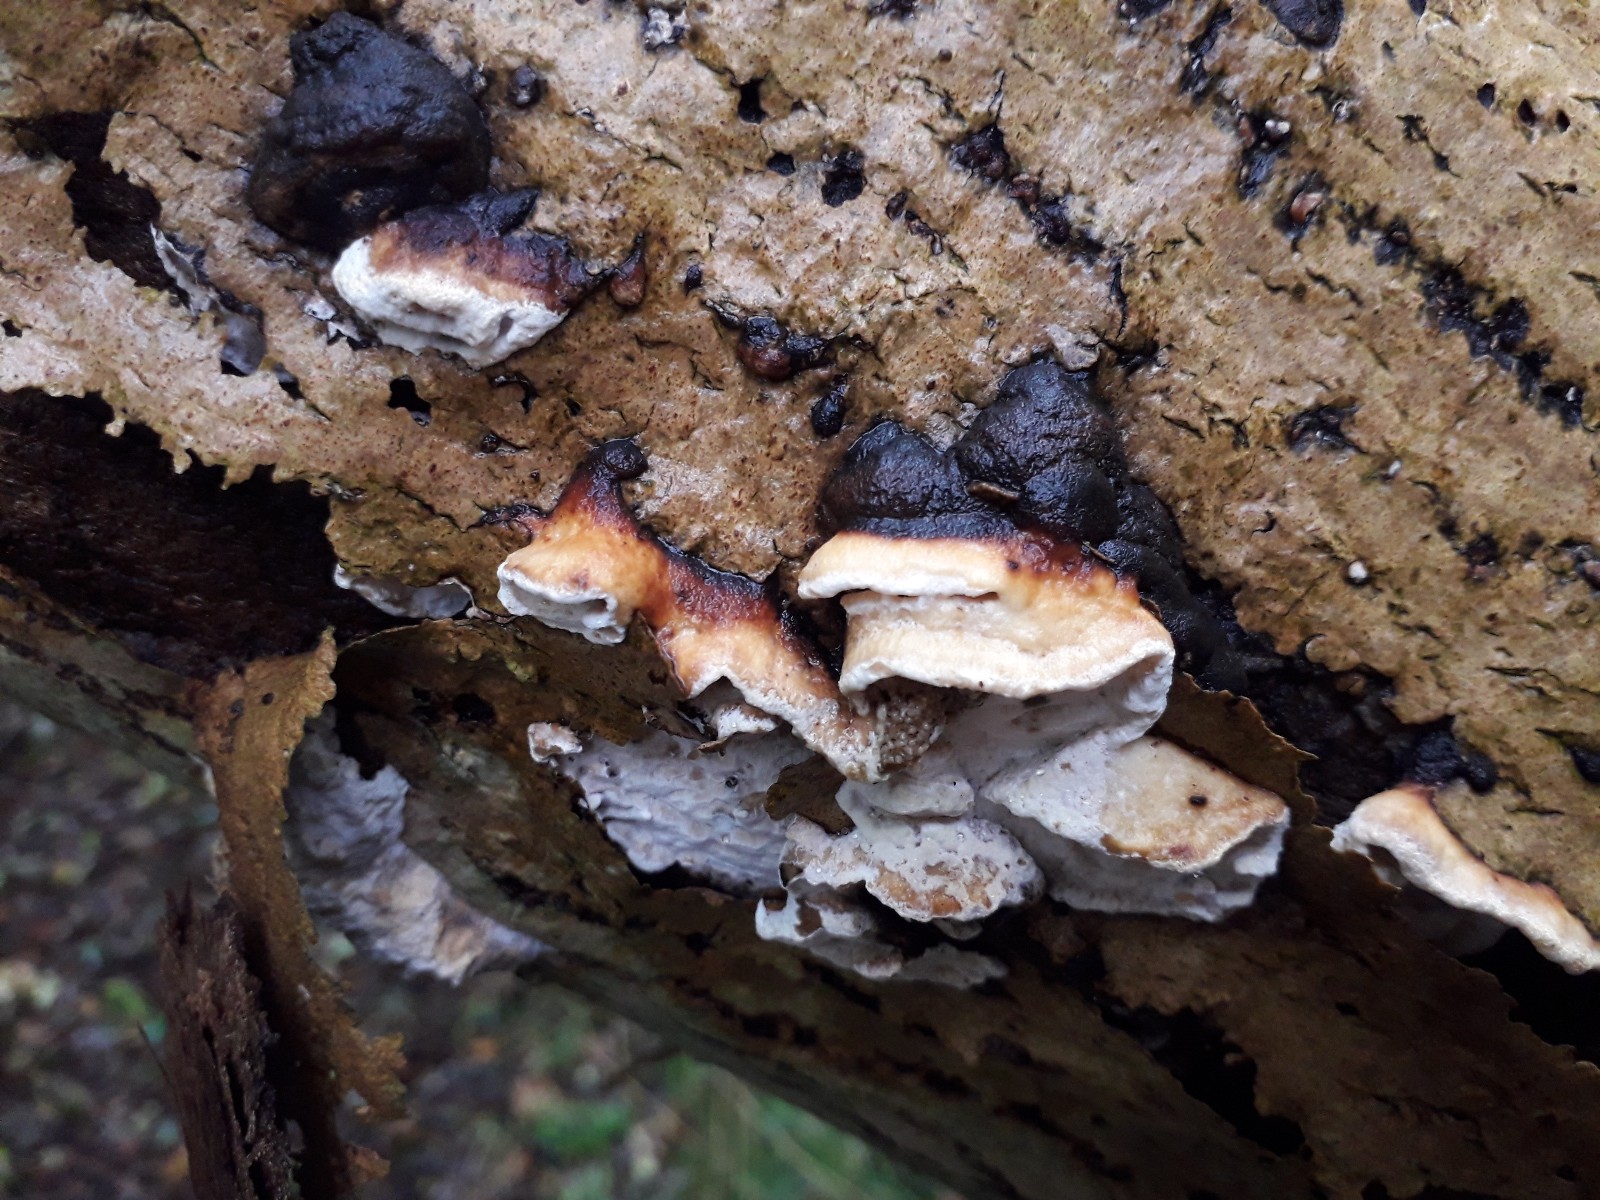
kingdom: Fungi
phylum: Basidiomycota
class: Agaricomycetes
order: Polyporales
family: Incrustoporiaceae
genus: Skeletocutis
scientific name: Skeletocutis nemoralis
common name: stor krystalporesvamp
